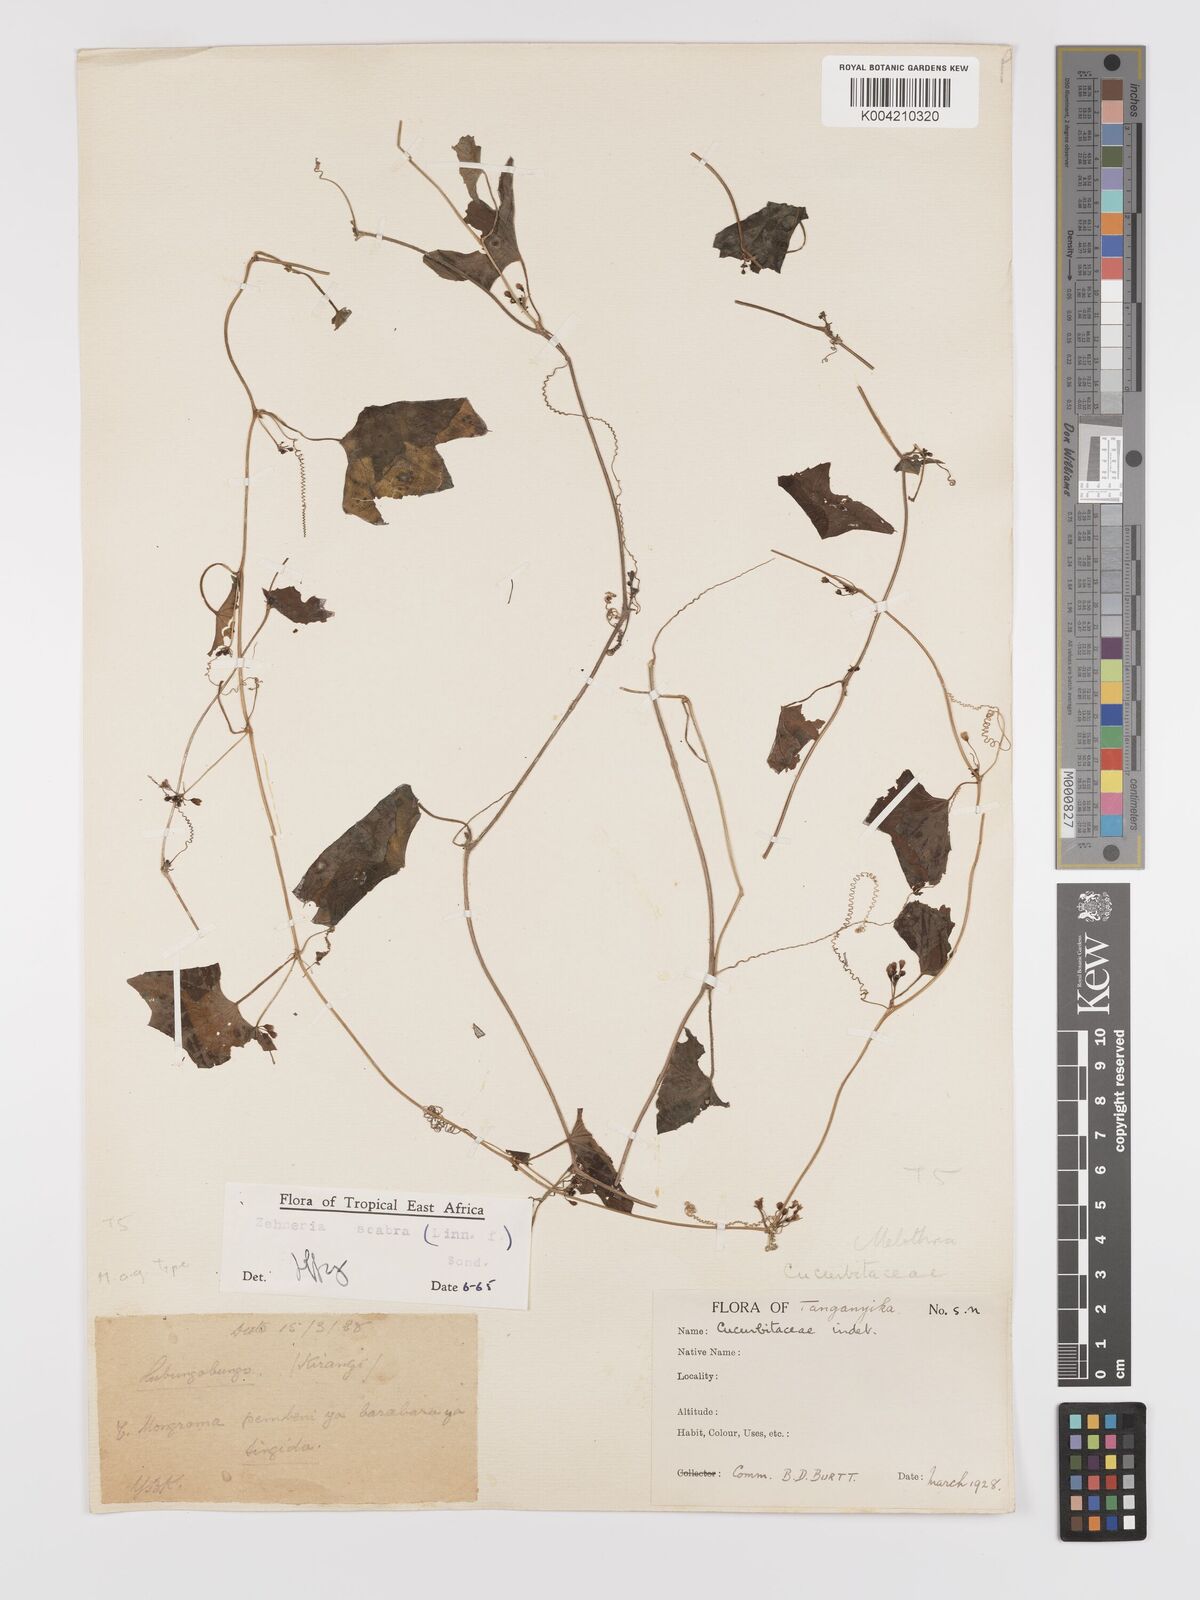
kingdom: Plantae
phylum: Tracheophyta
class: Magnoliopsida
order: Cucurbitales
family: Cucurbitaceae
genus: Zehneria
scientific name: Zehneria scabra
